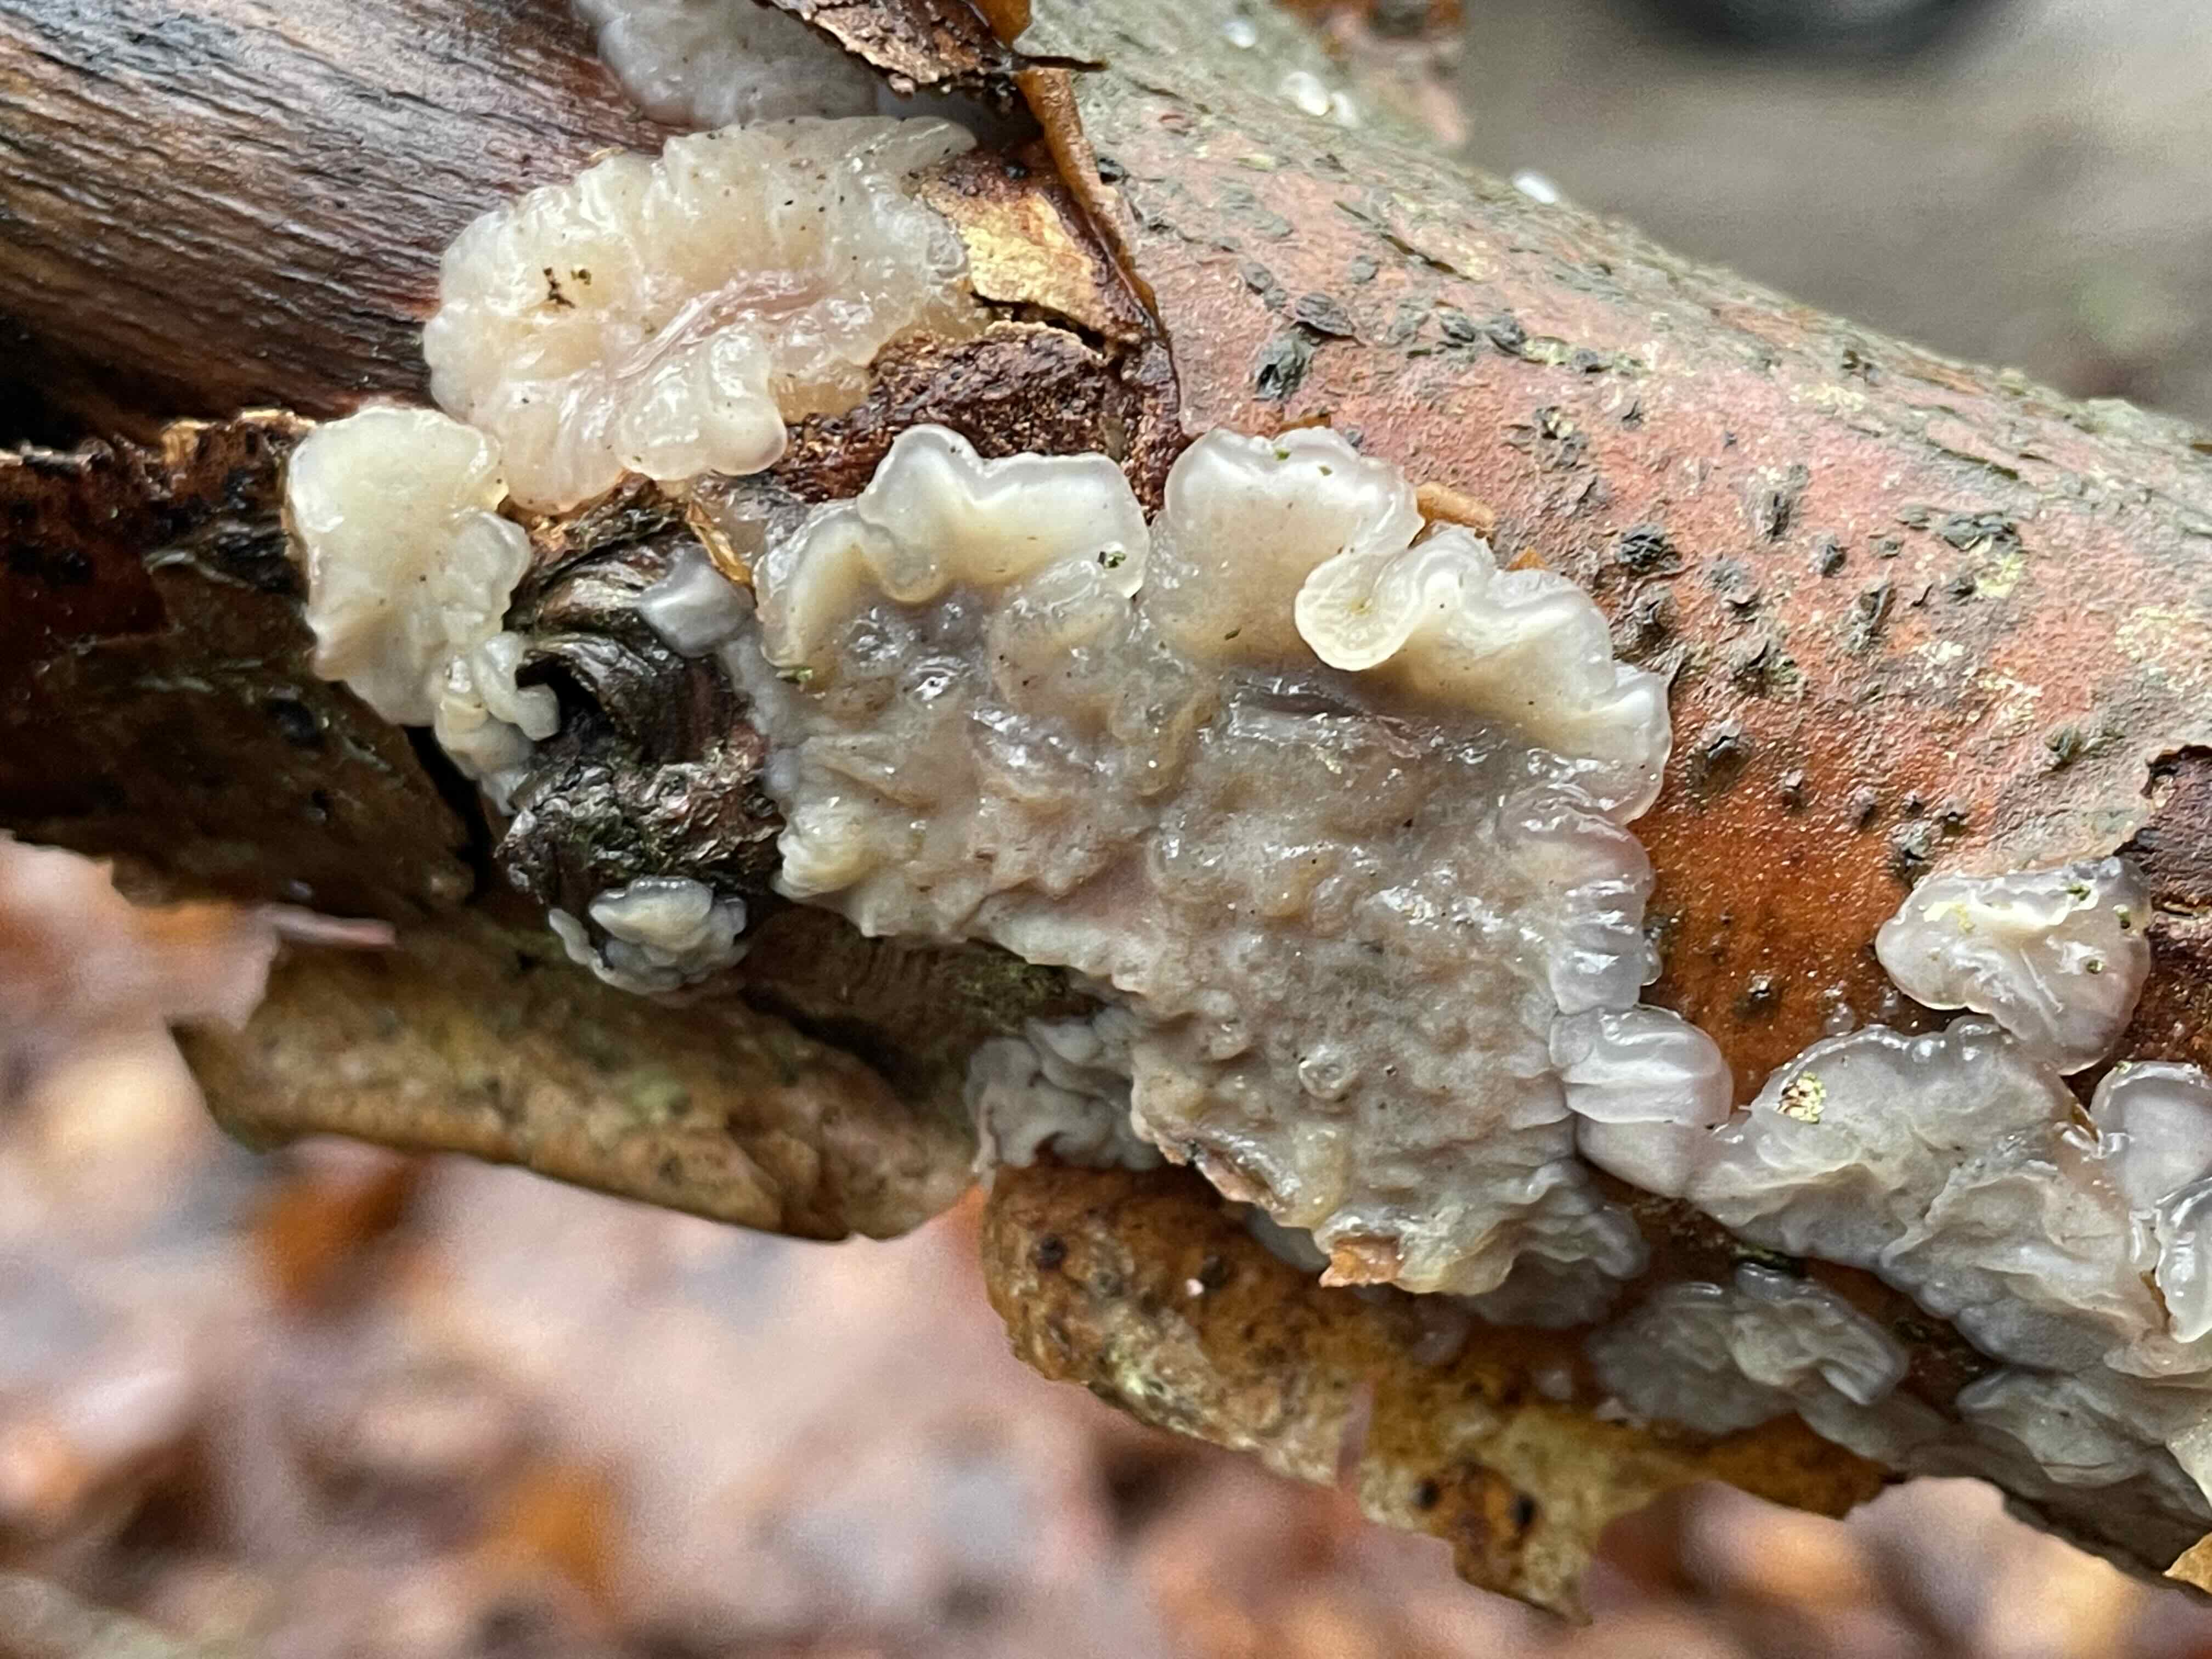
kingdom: Fungi
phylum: Basidiomycota
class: Agaricomycetes
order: Auriculariales
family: Auriculariaceae
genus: Exidia
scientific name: Exidia thuretiana
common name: hvidlig bævretop
